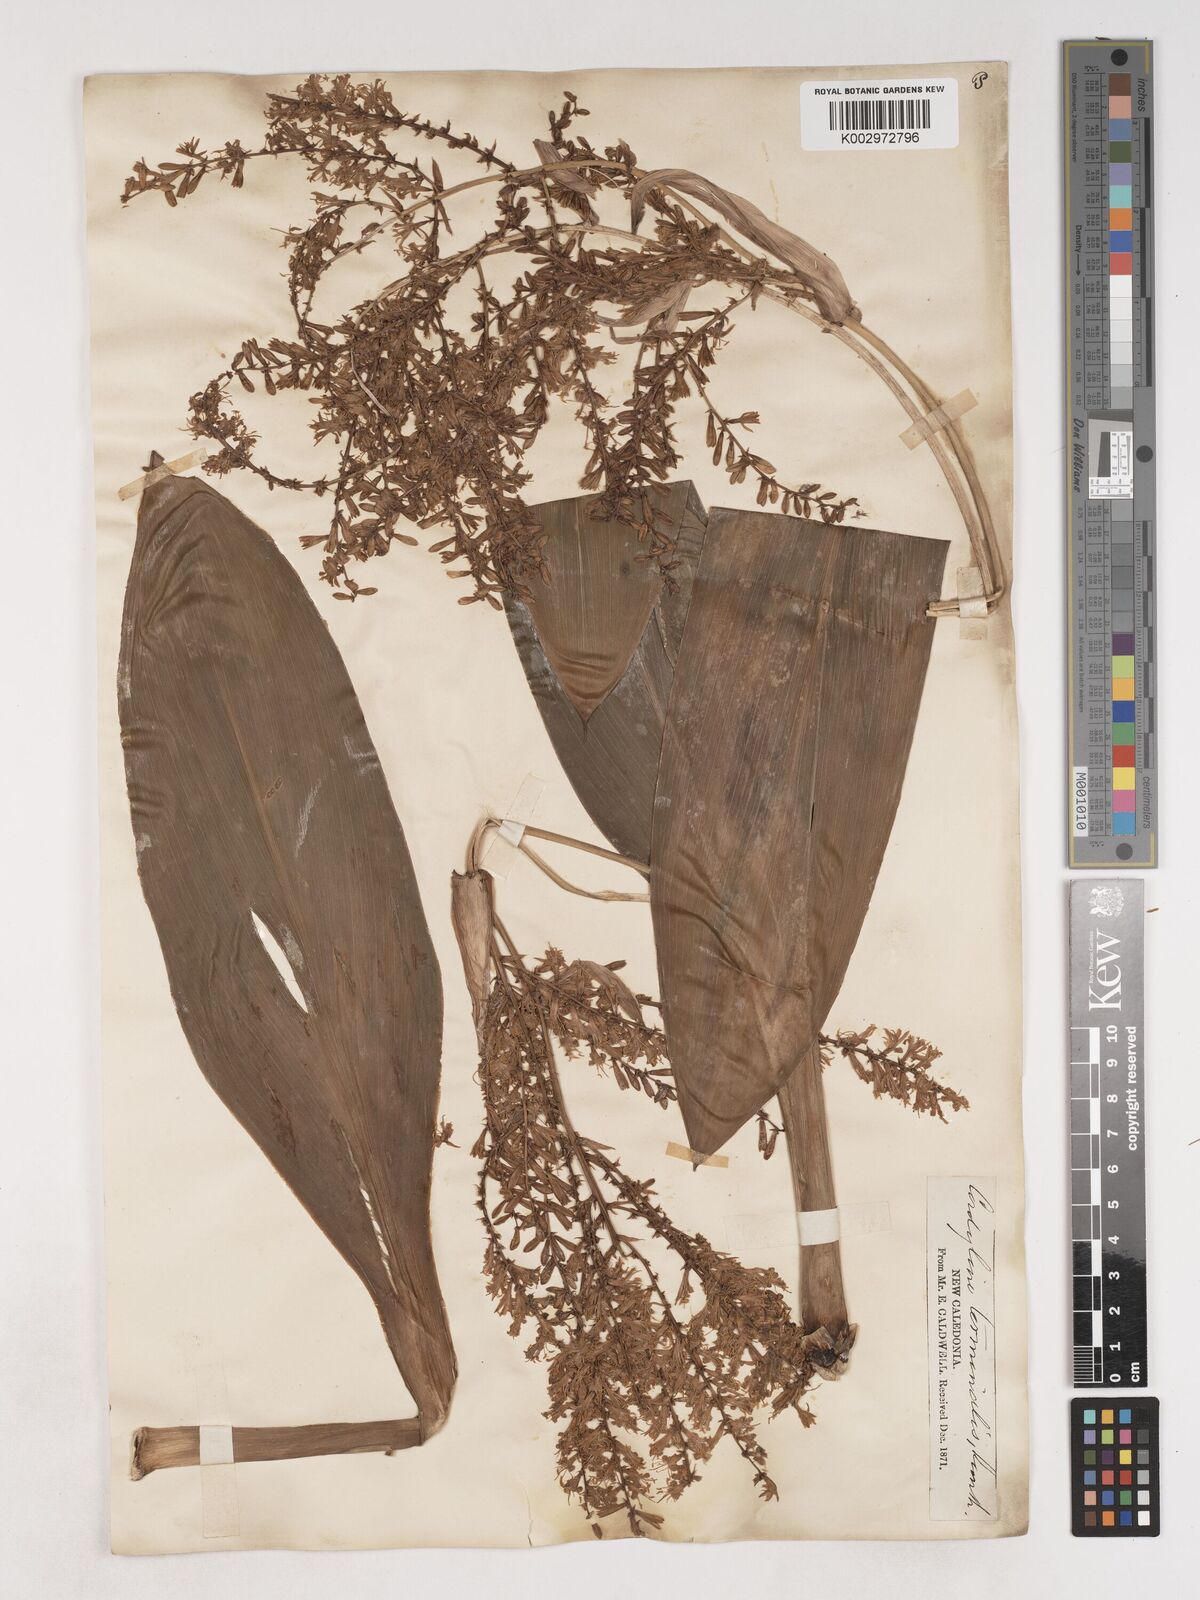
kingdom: Plantae
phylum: Tracheophyta
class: Liliopsida
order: Asparagales
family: Asparagaceae
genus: Cordyline
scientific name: Cordyline fruticosa
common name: Good-luck-plant
